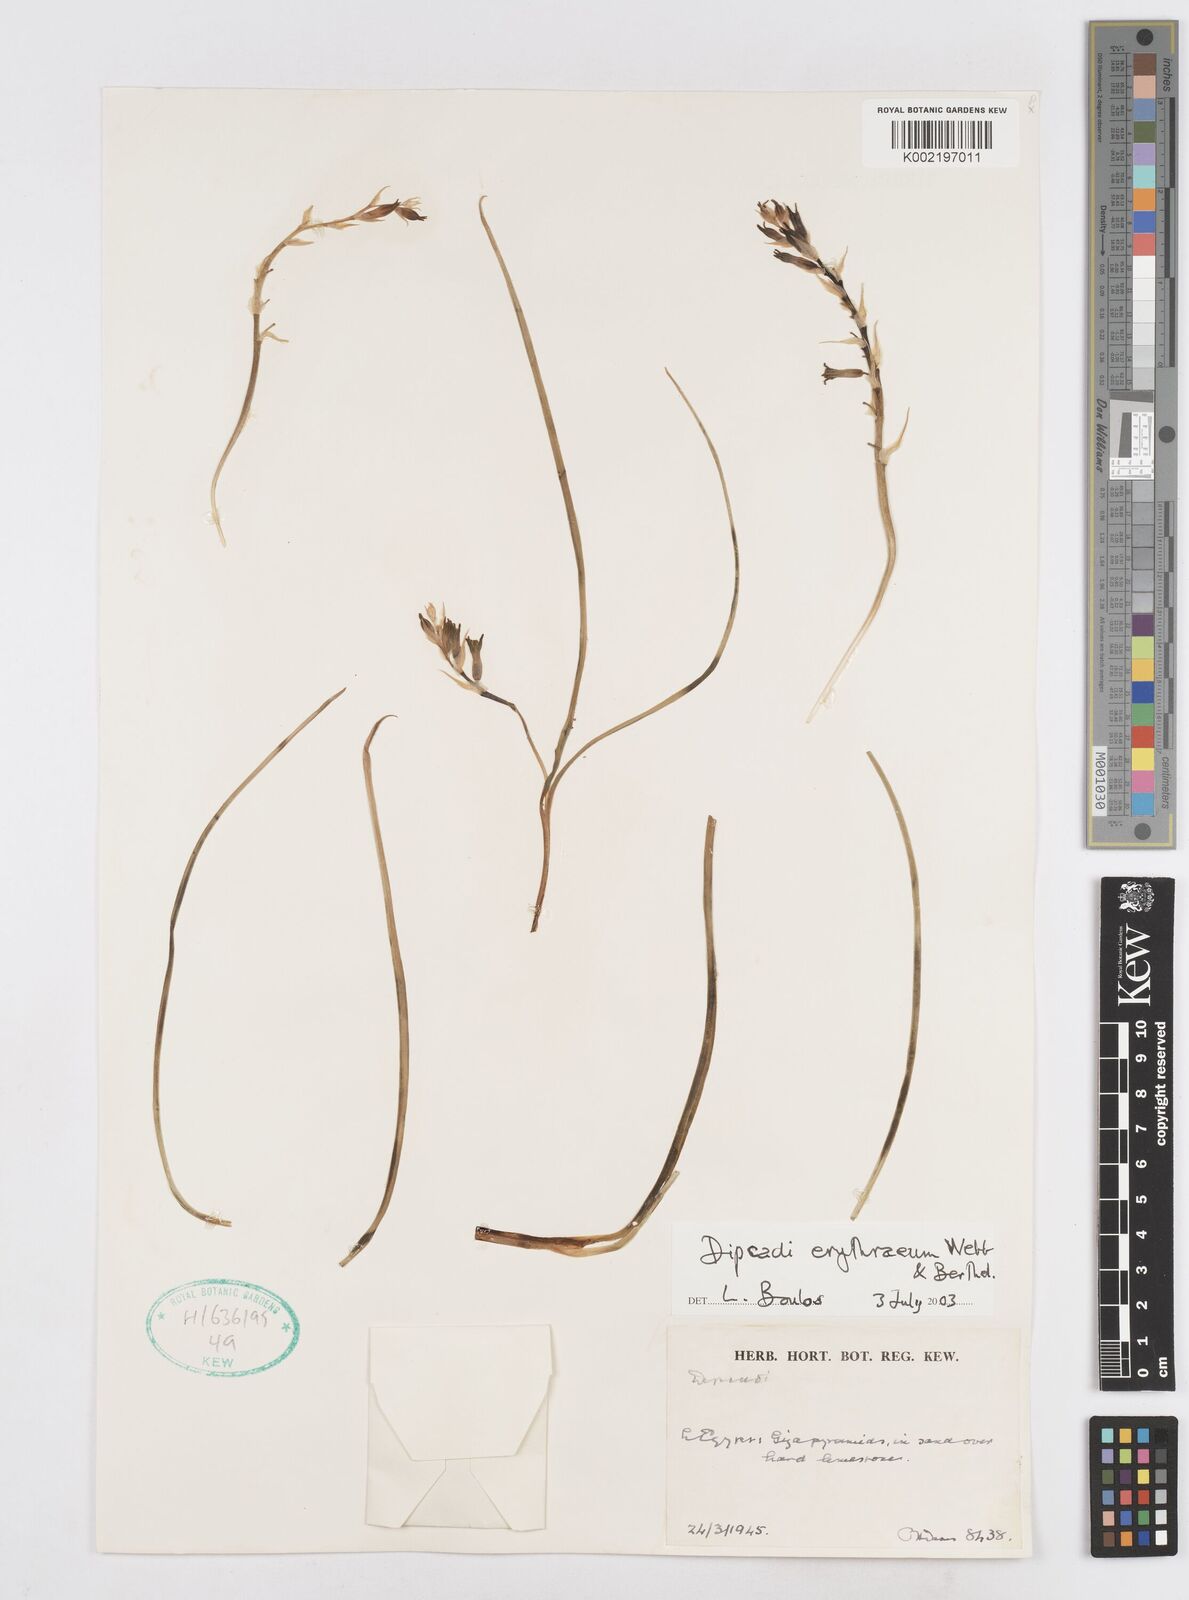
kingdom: Plantae
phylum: Tracheophyta
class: Liliopsida
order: Asparagales
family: Asparagaceae
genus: Dipcadi
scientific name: Dipcadi erythraeum
